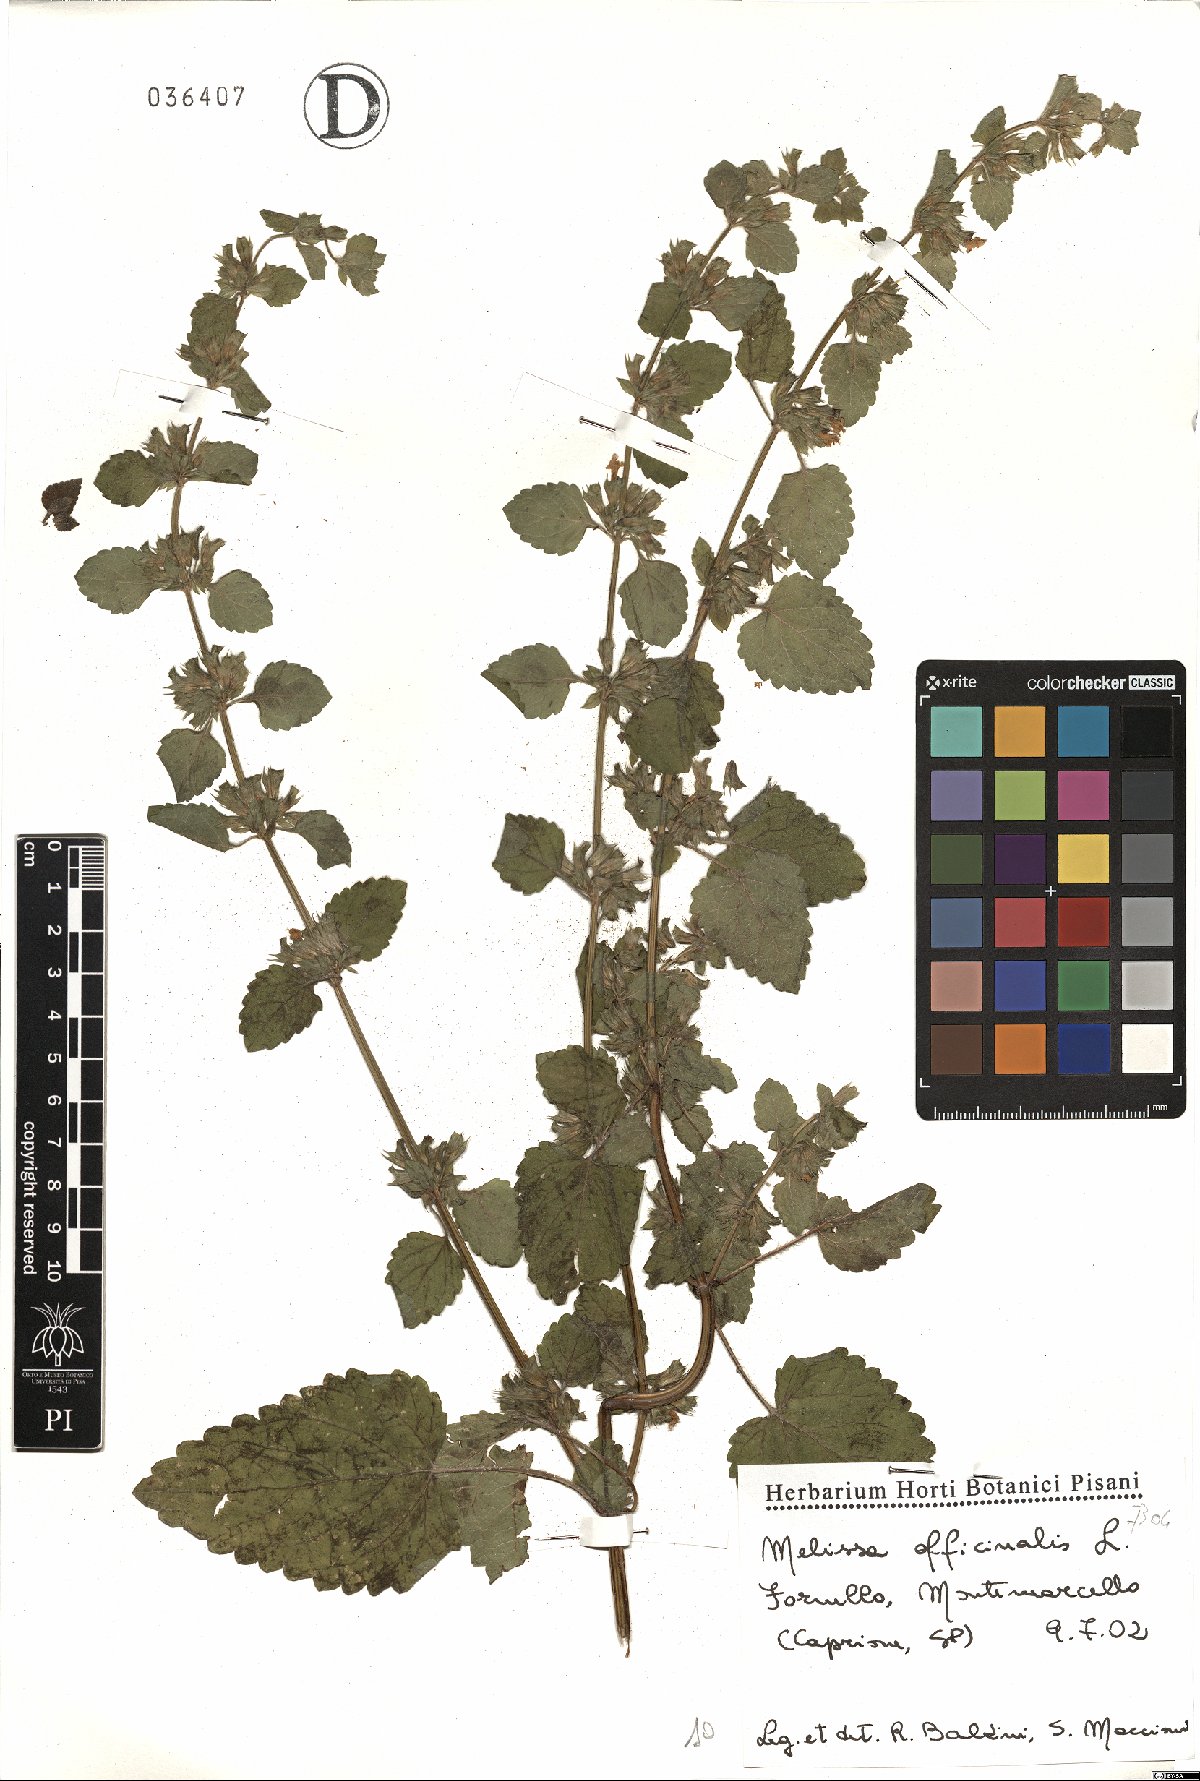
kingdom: Plantae
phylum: Tracheophyta
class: Magnoliopsida
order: Lamiales
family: Lamiaceae
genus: Melissa
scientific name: Melissa officinalis
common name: Balm
